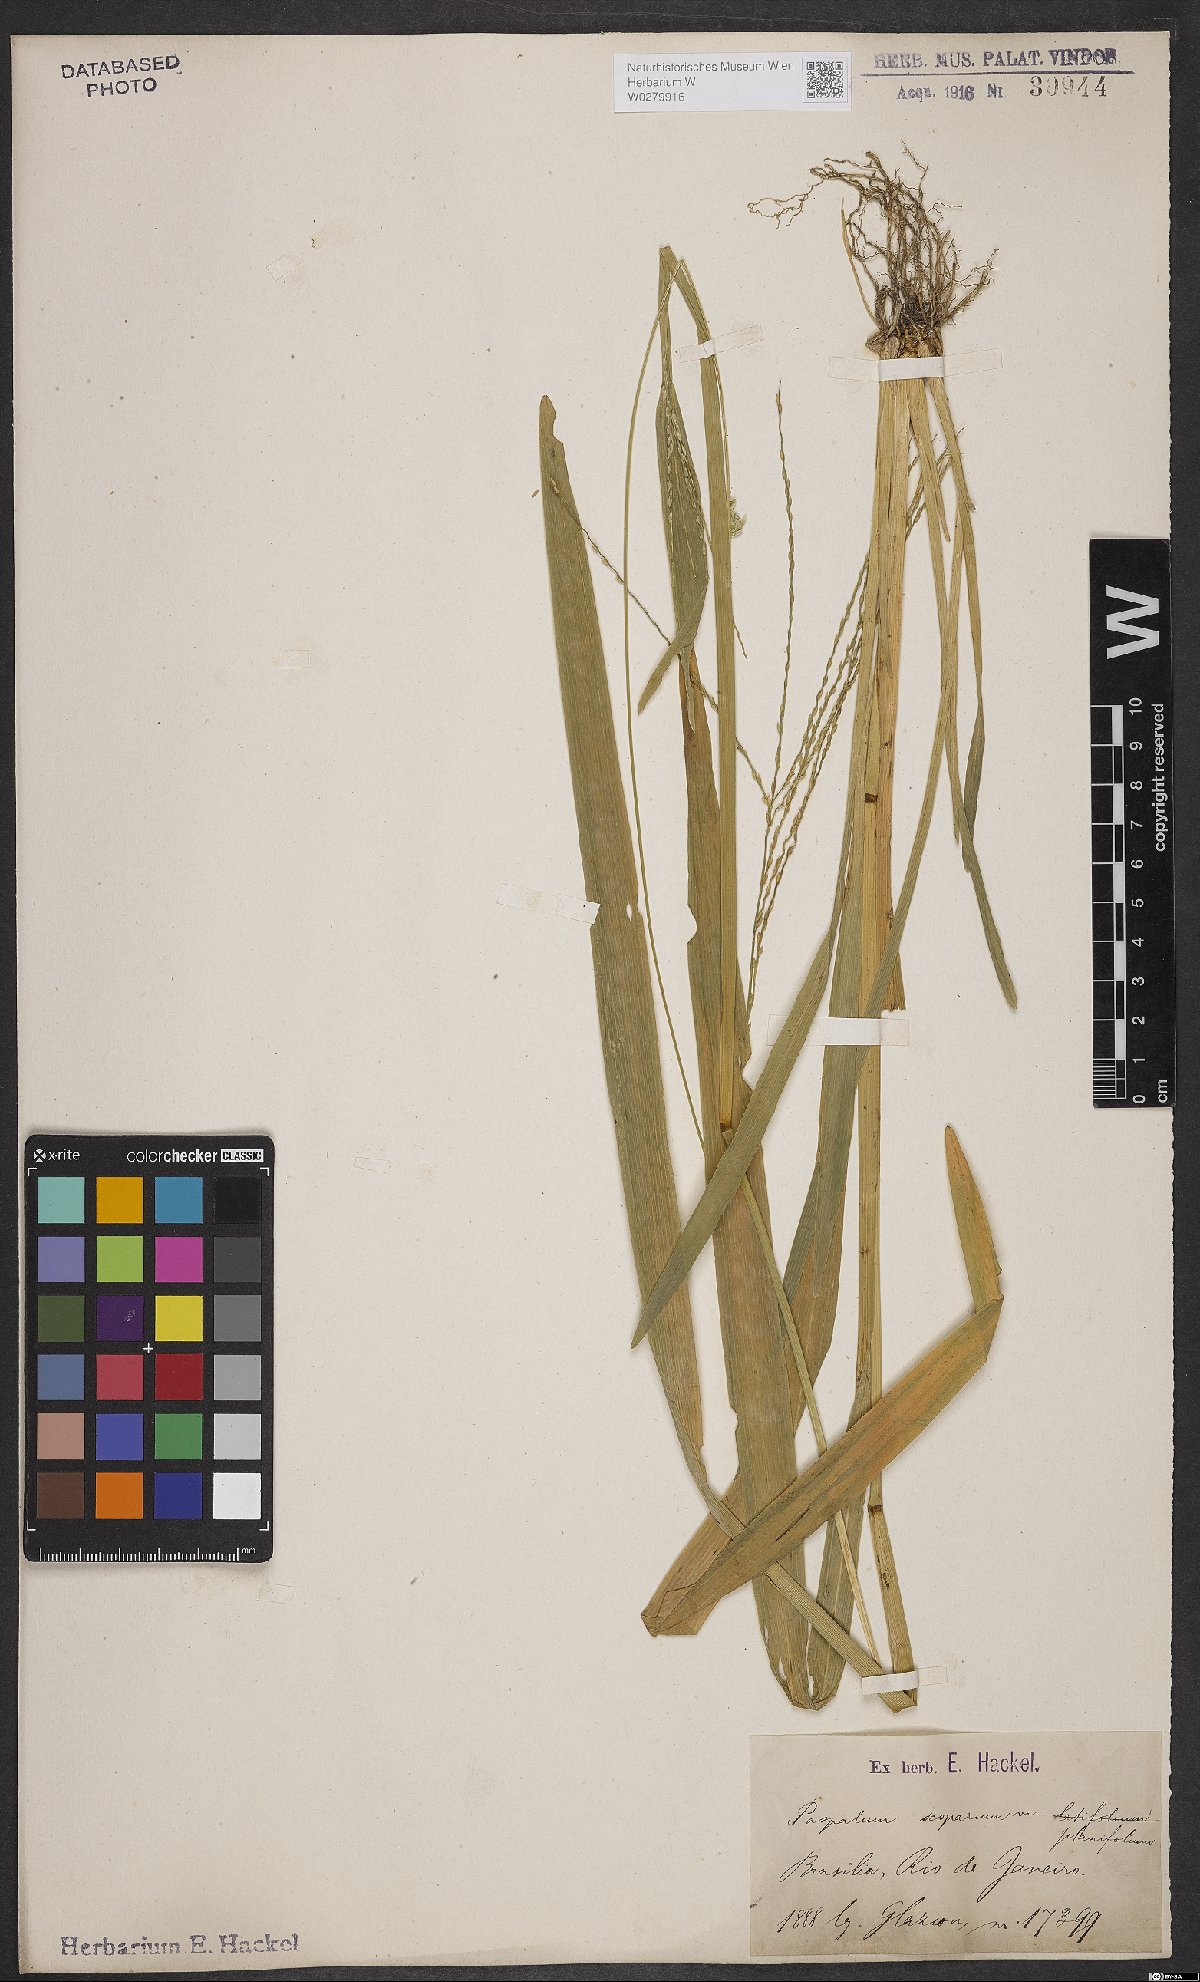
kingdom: Plantae
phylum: Tracheophyta
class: Liliopsida
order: Poales
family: Poaceae
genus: Axonopus
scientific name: Axonopus scoparius
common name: Imperial grass
